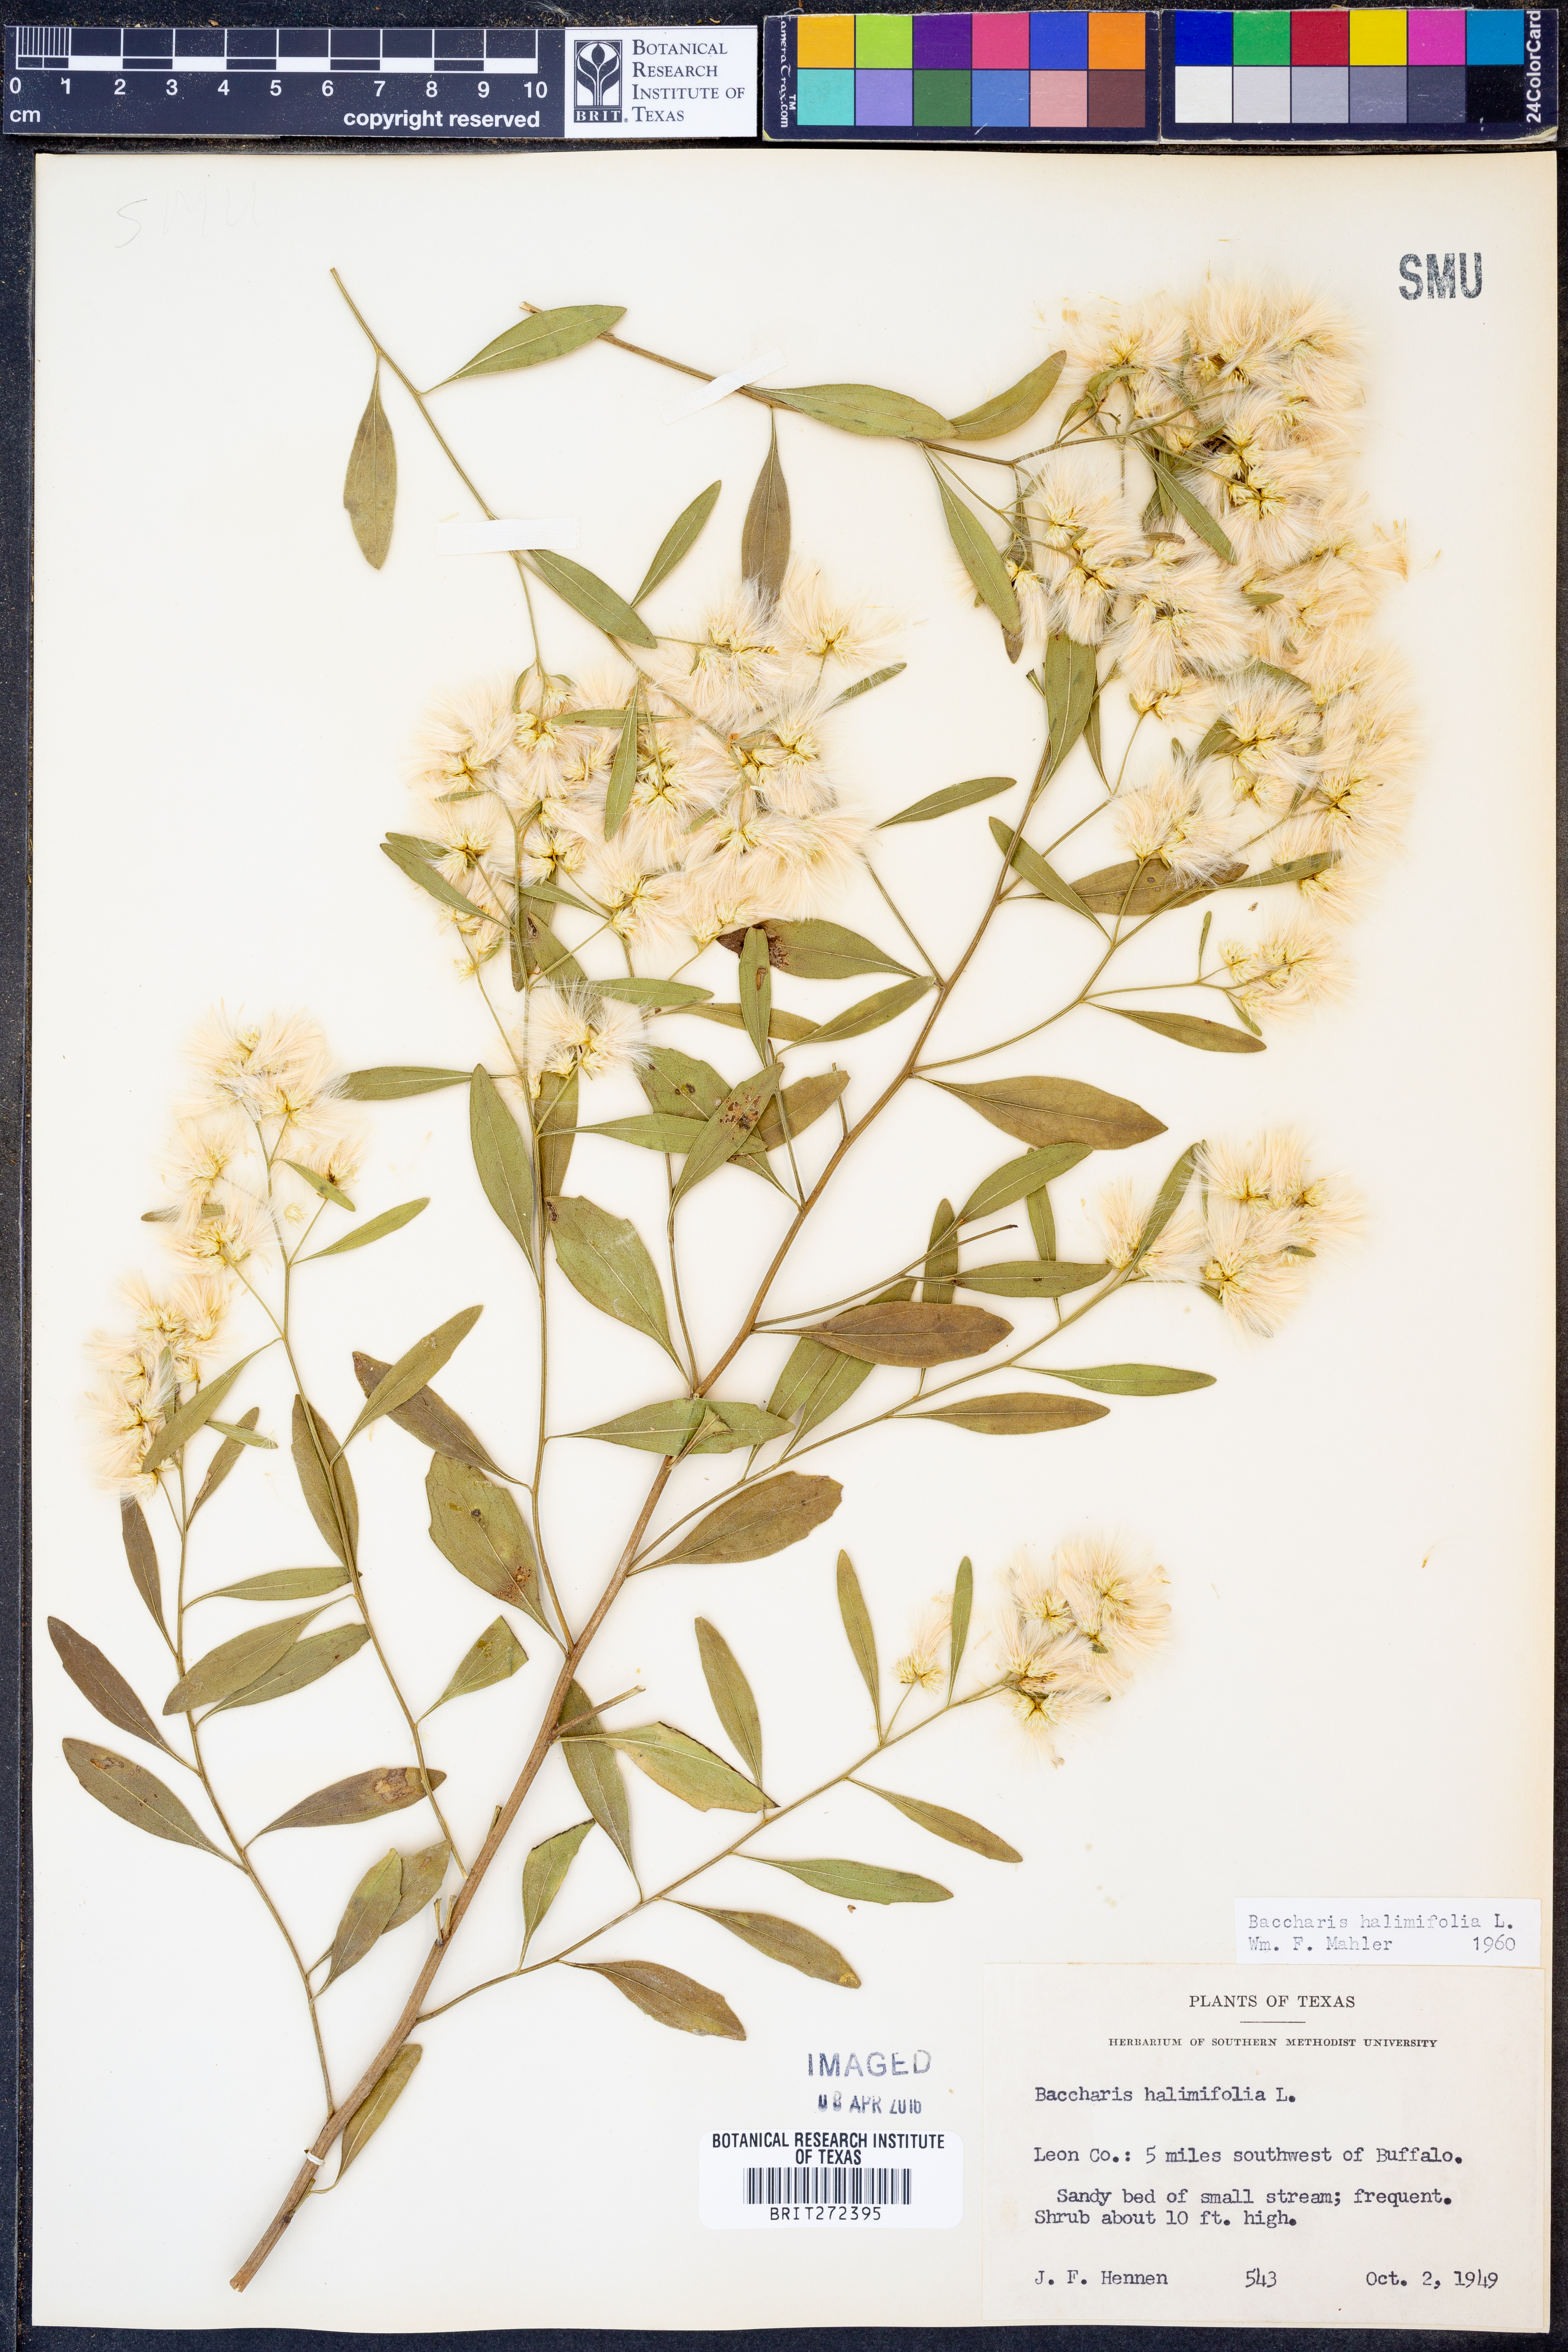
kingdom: Plantae
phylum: Tracheophyta
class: Magnoliopsida
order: Asterales
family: Asteraceae
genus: Nidorella
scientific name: Nidorella ivifolia
